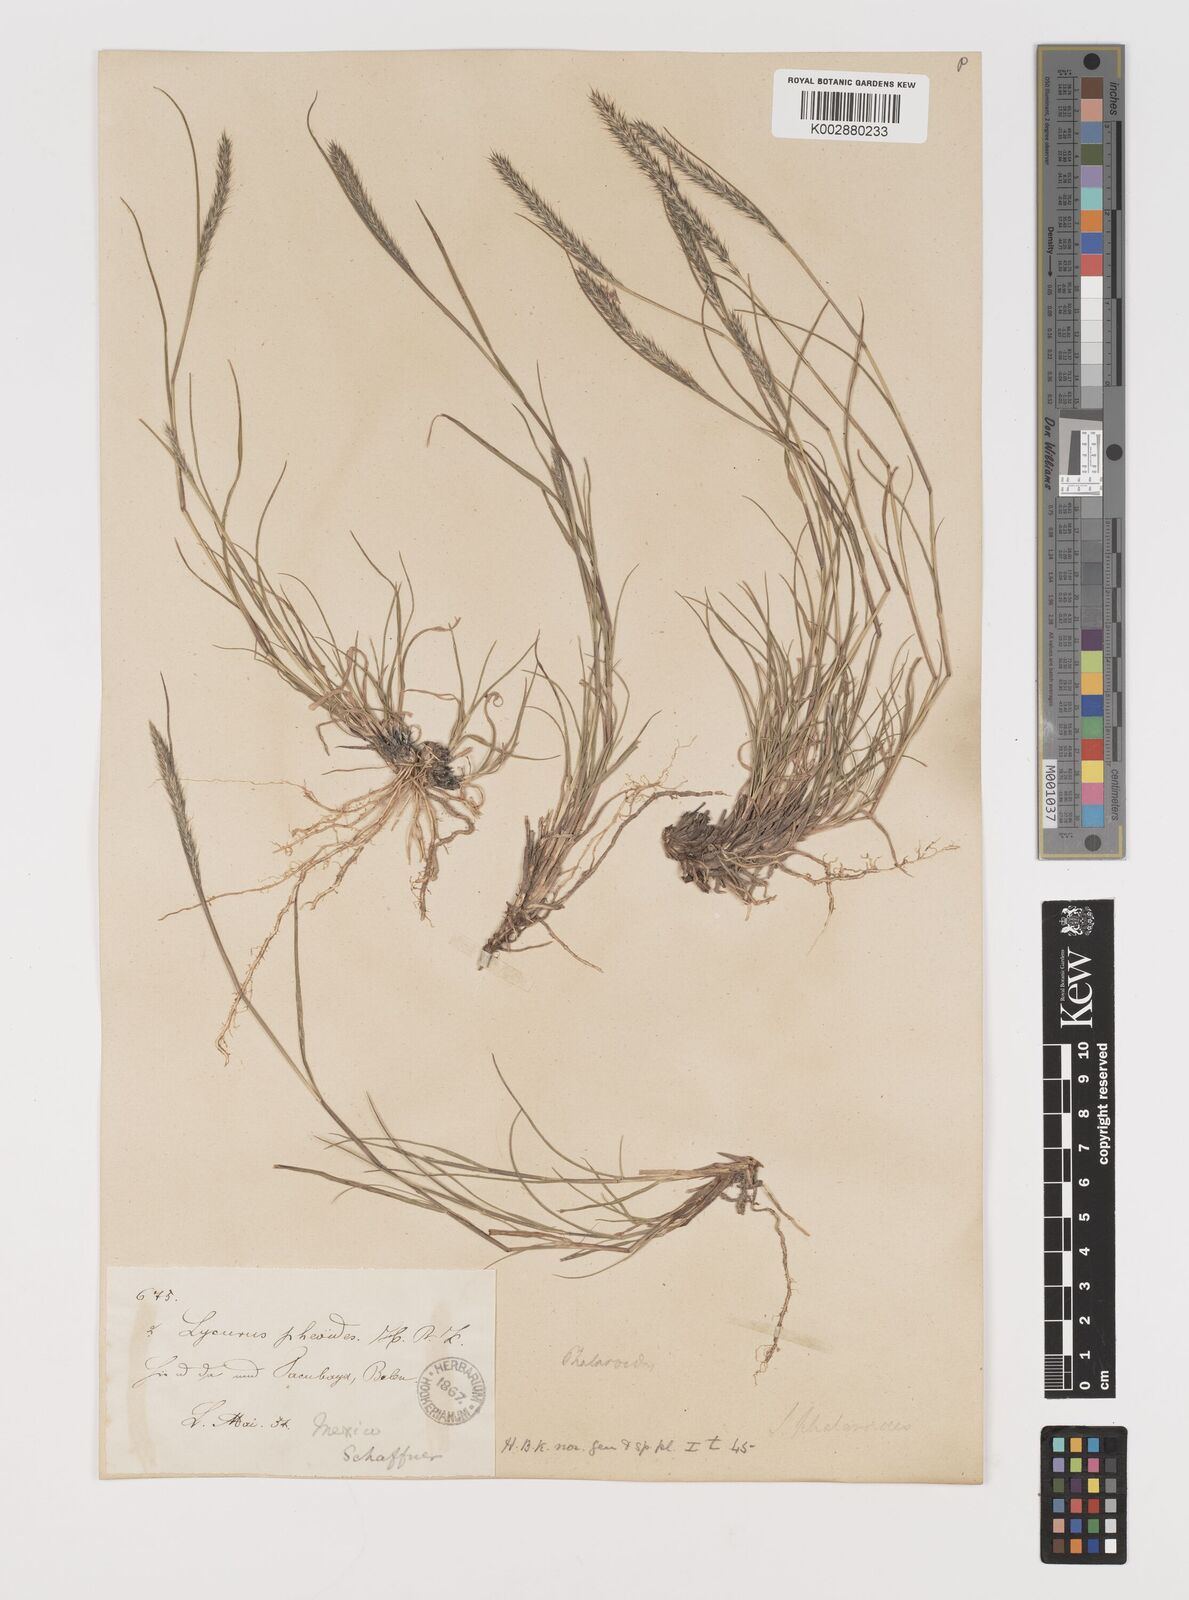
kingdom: Plantae
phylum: Tracheophyta
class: Liliopsida
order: Poales
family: Poaceae
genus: Muhlenbergia
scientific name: Muhlenbergia phleoides
